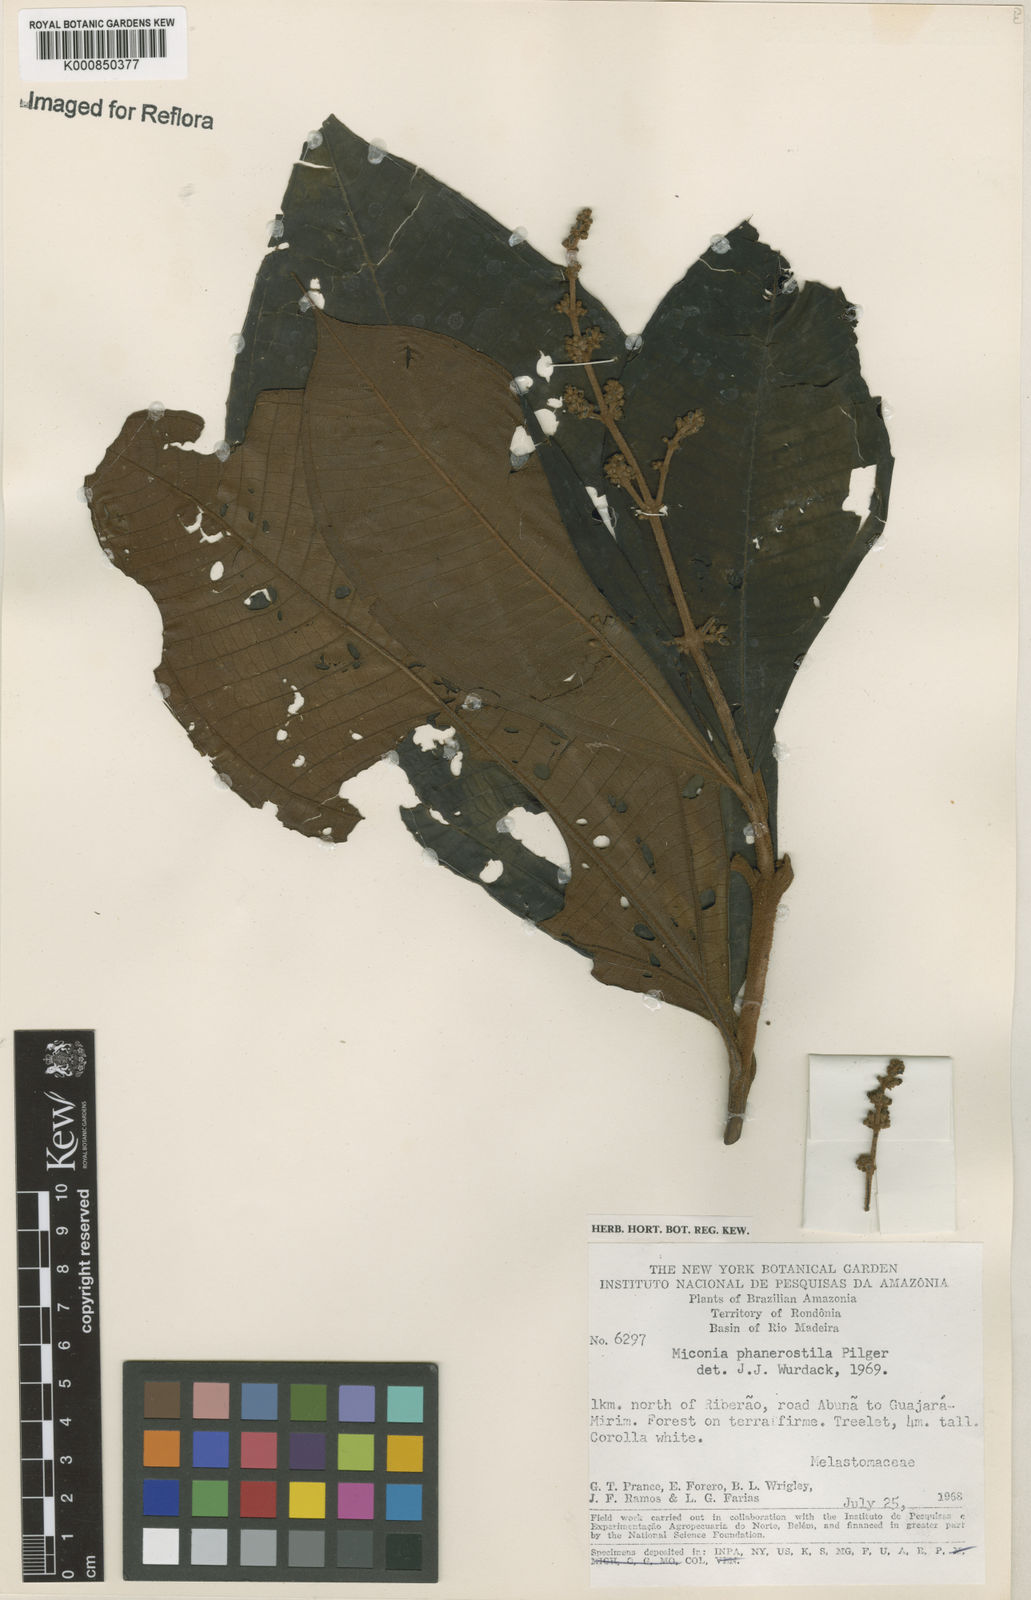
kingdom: Plantae
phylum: Tracheophyta
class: Magnoliopsida
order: Myrtales
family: Melastomataceae
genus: Miconia
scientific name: Miconia phanerostila
